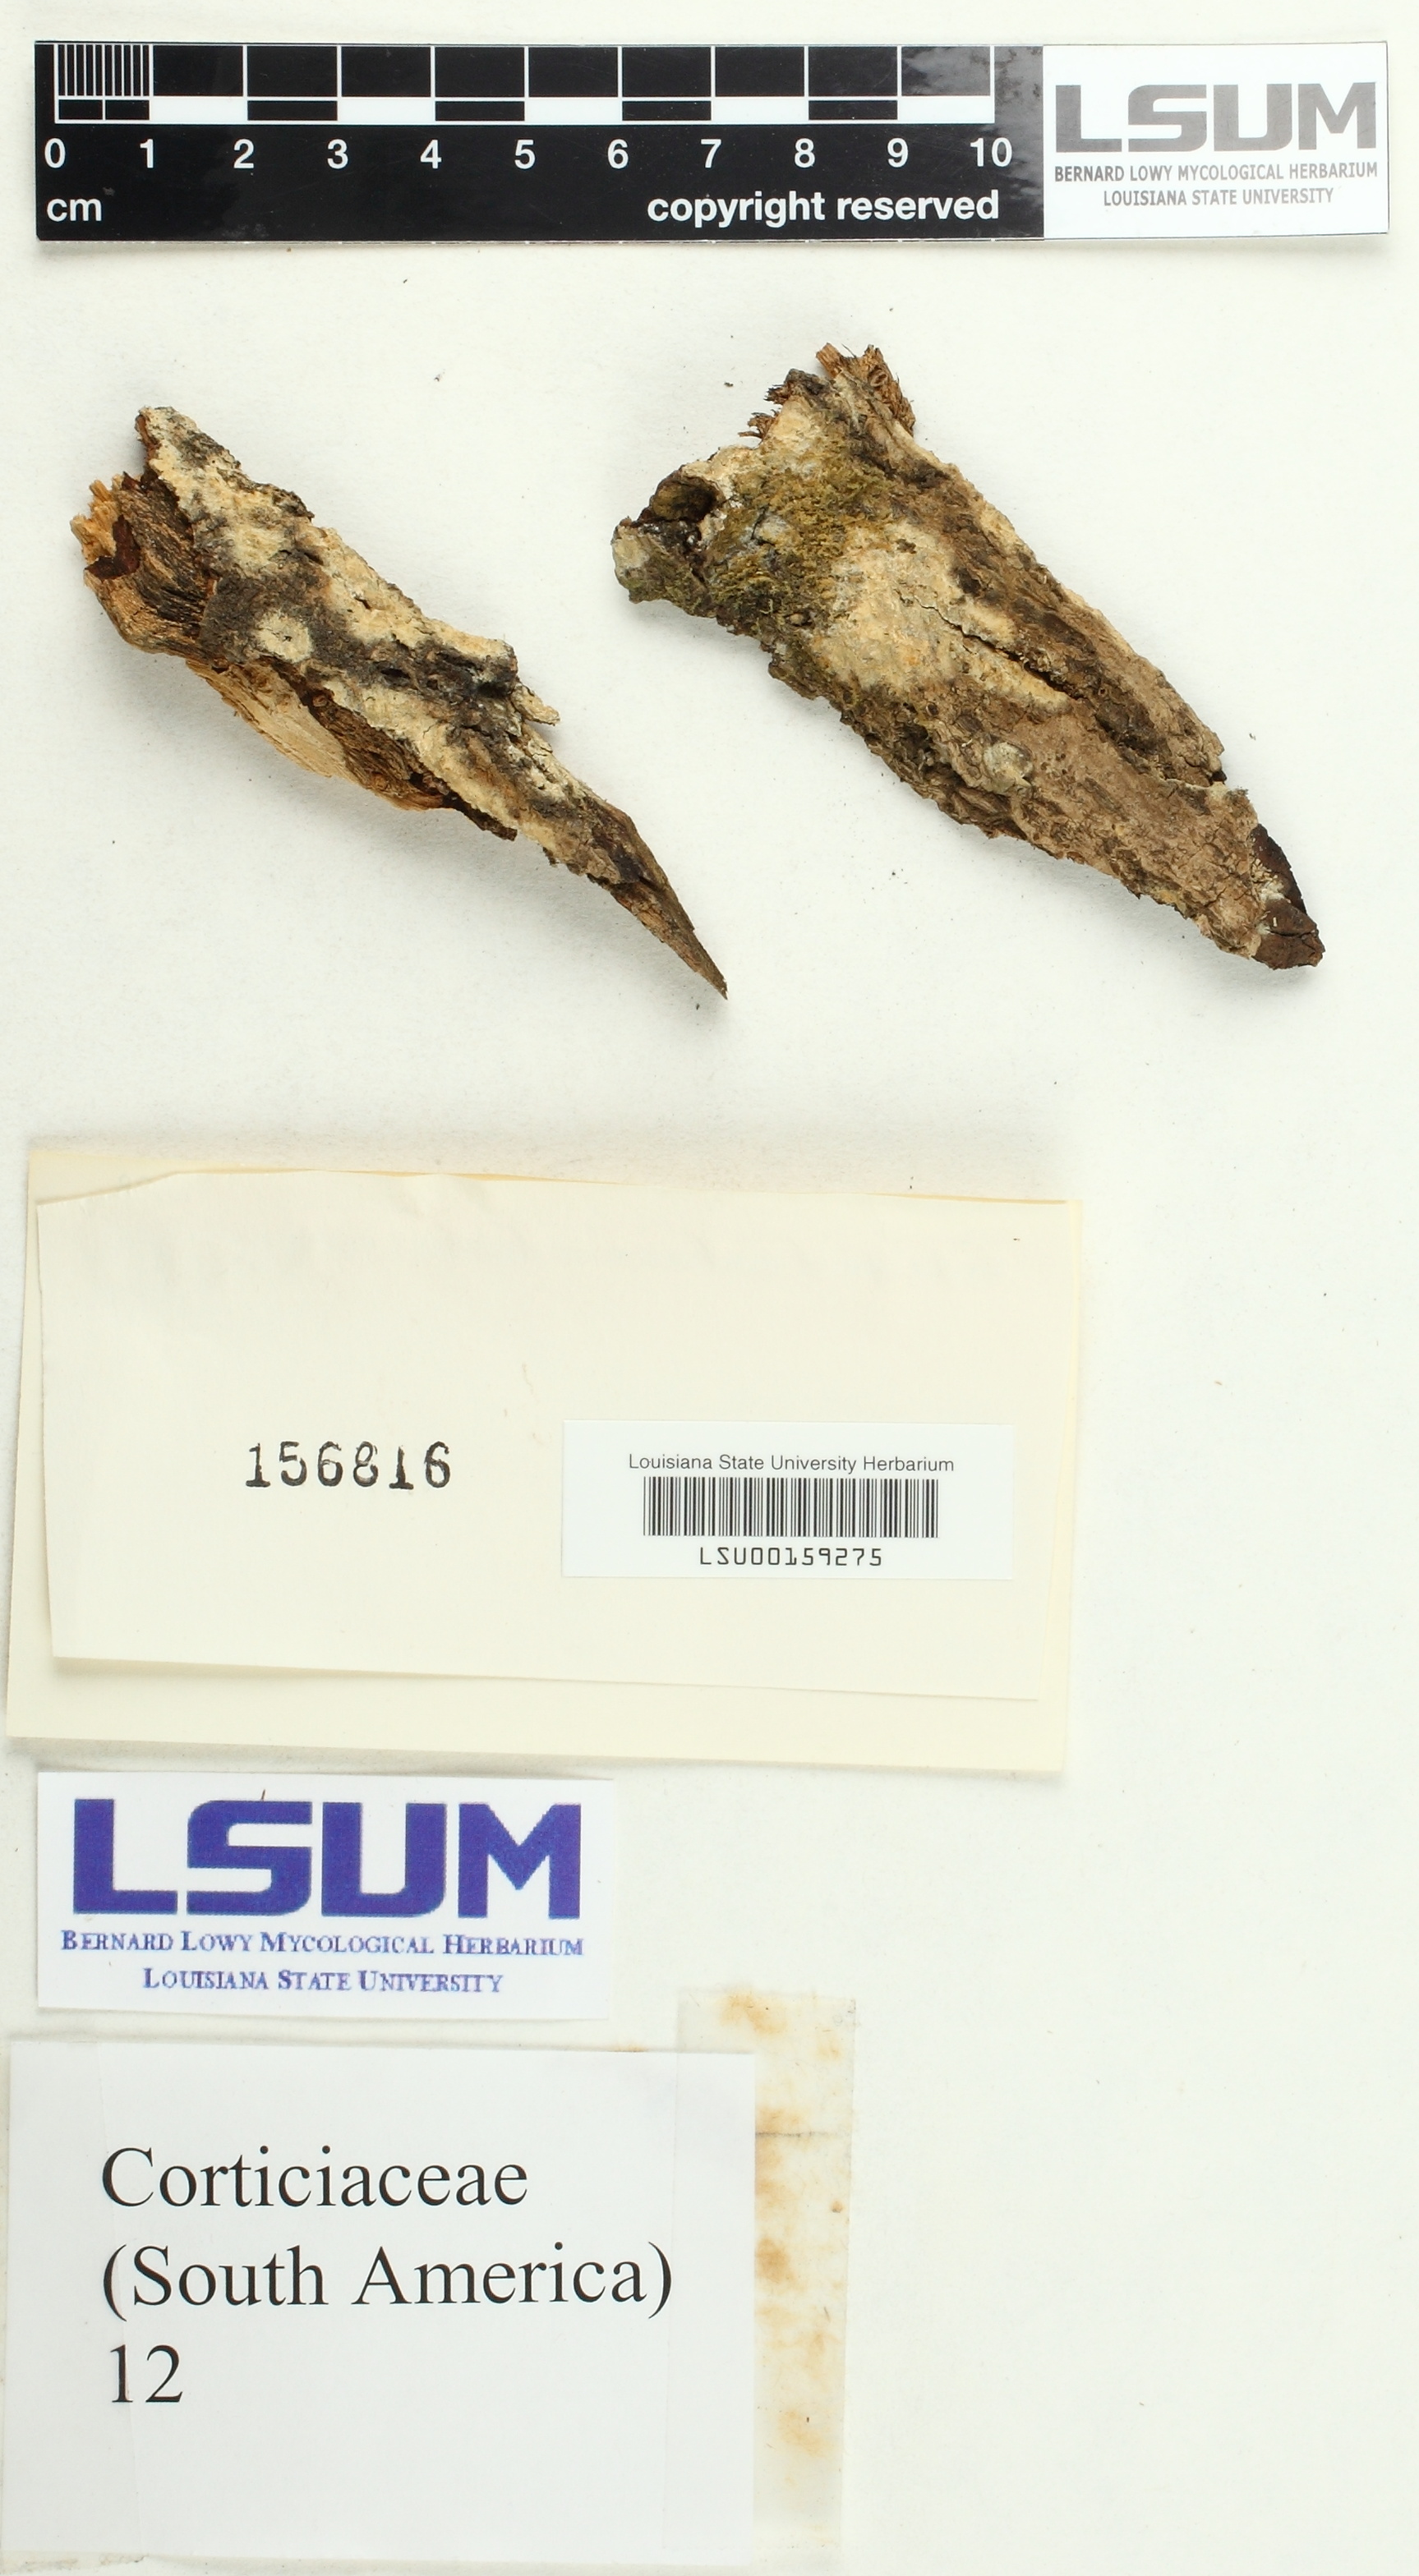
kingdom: Fungi
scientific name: Fungi
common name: Fungi
